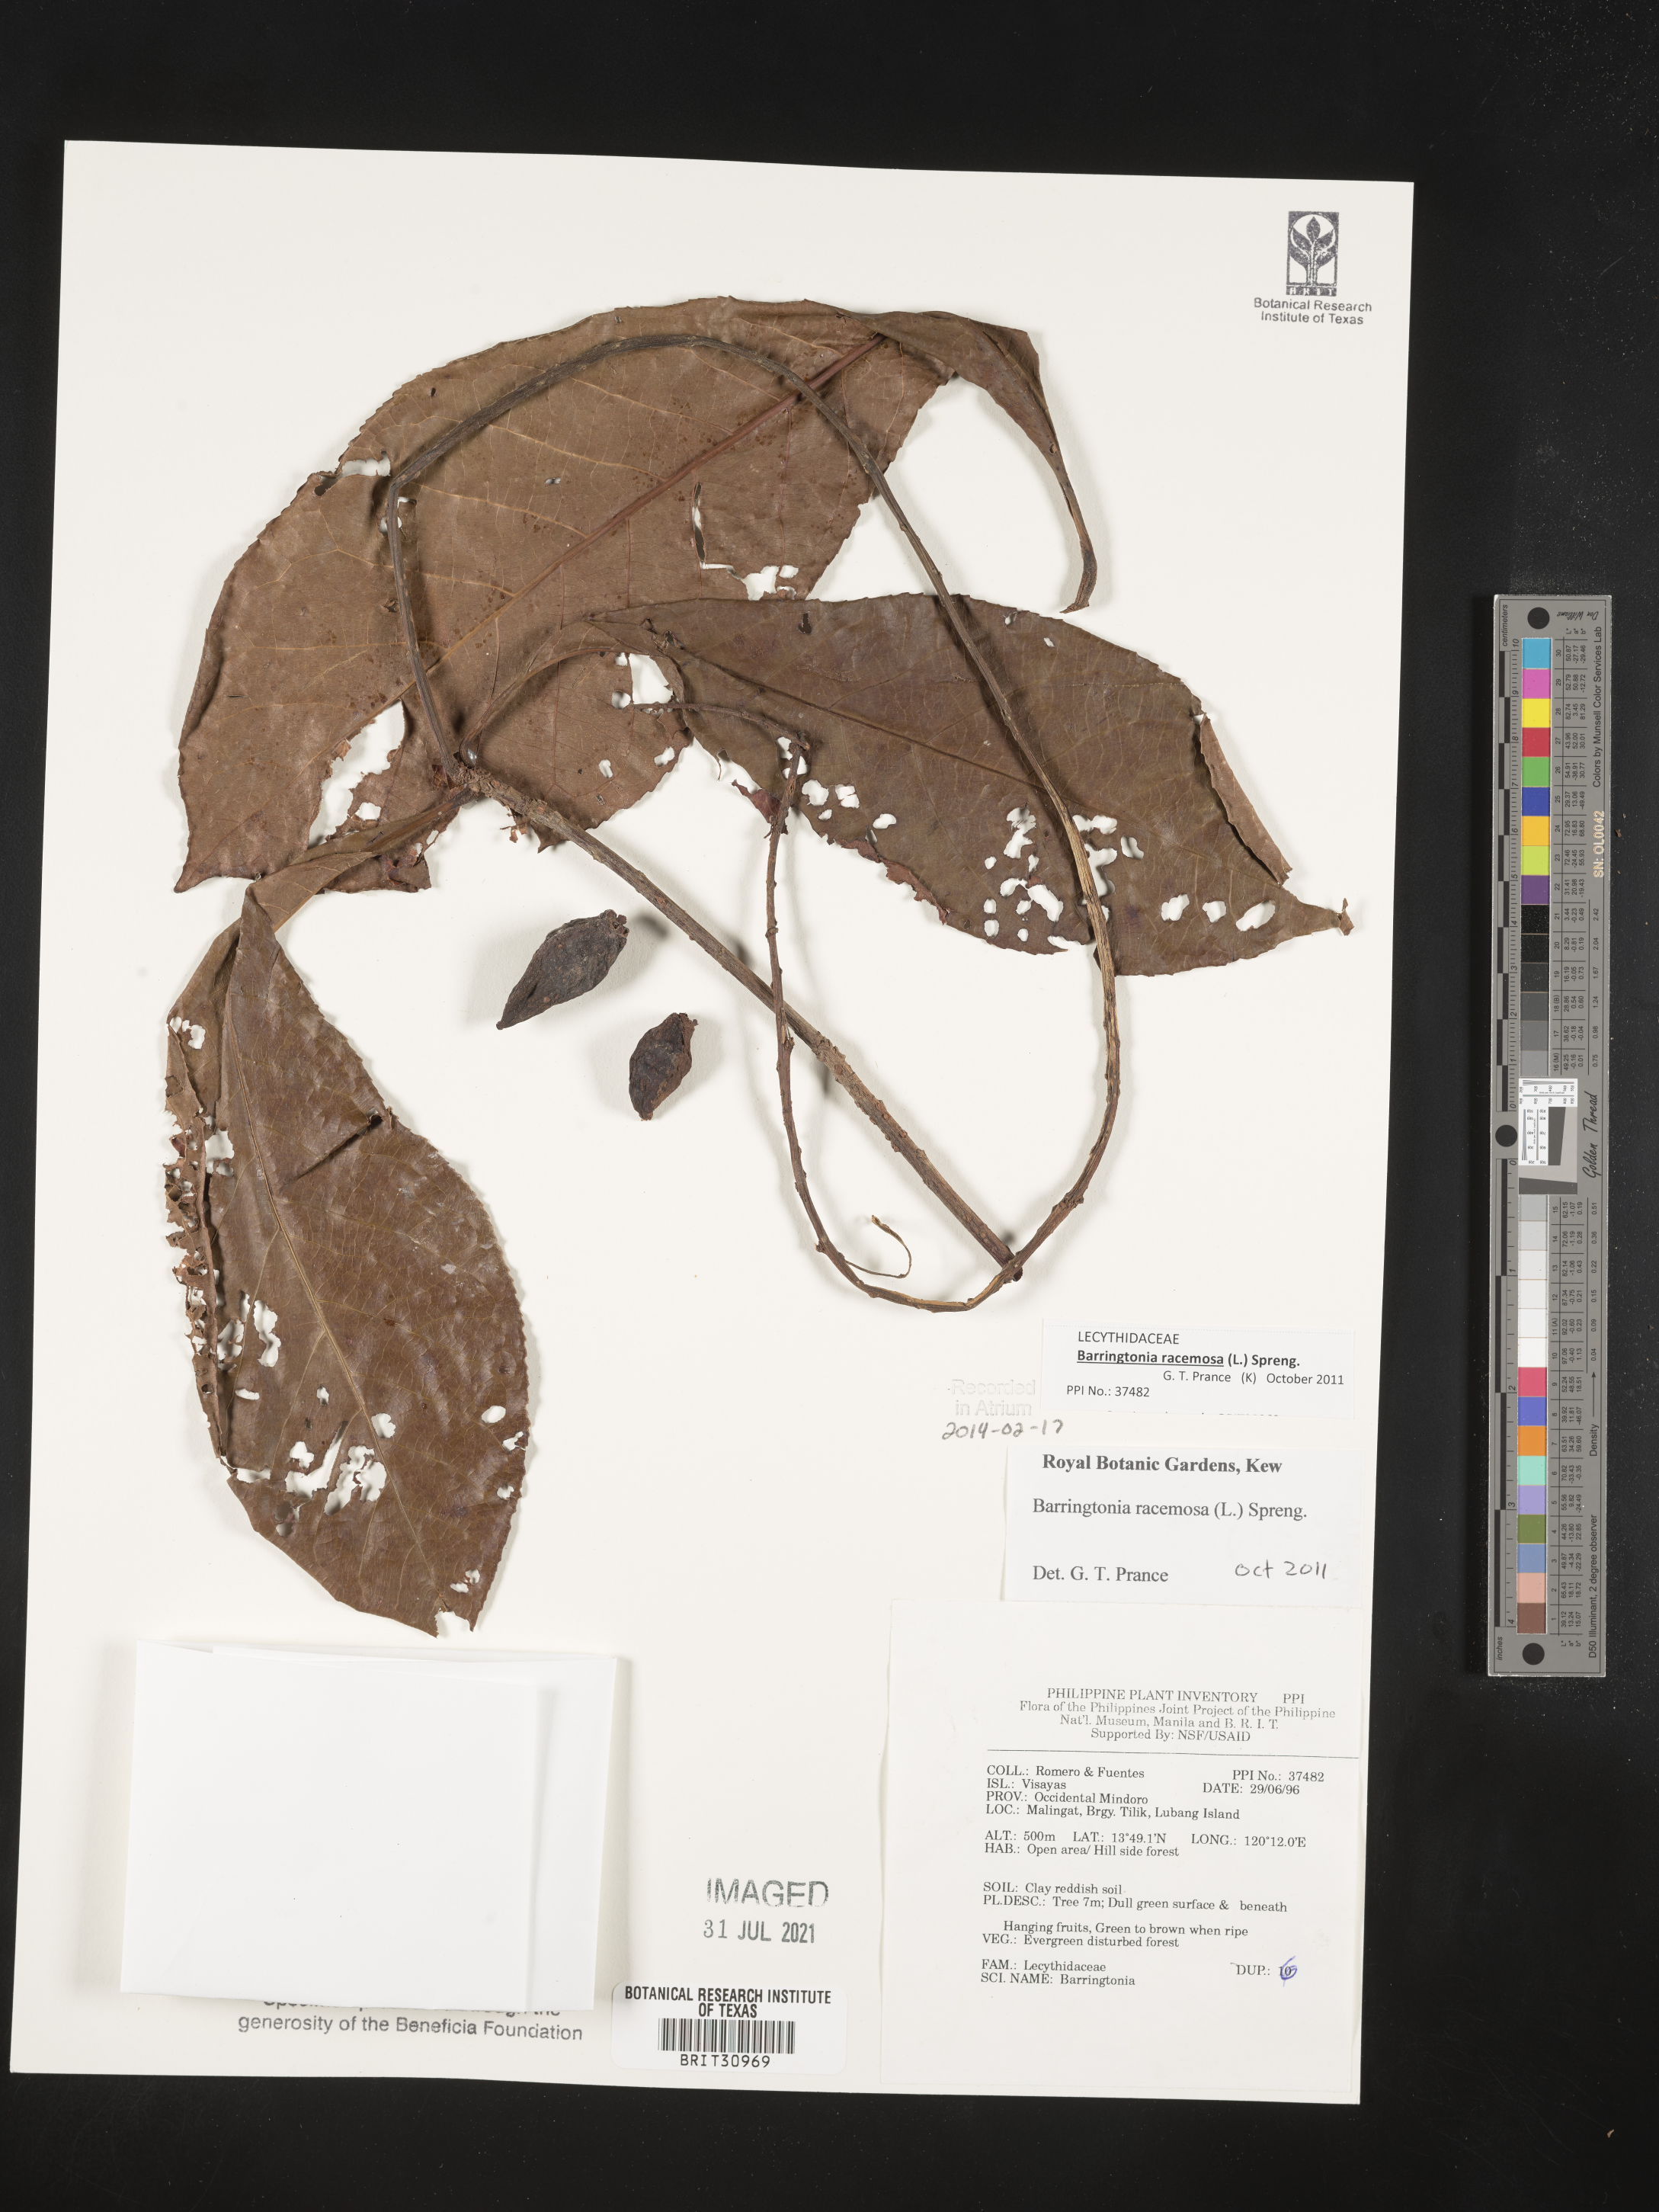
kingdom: Plantae
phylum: Tracheophyta
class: Magnoliopsida
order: Ericales
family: Lecythidaceae
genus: Barringtonia
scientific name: Barringtonia
